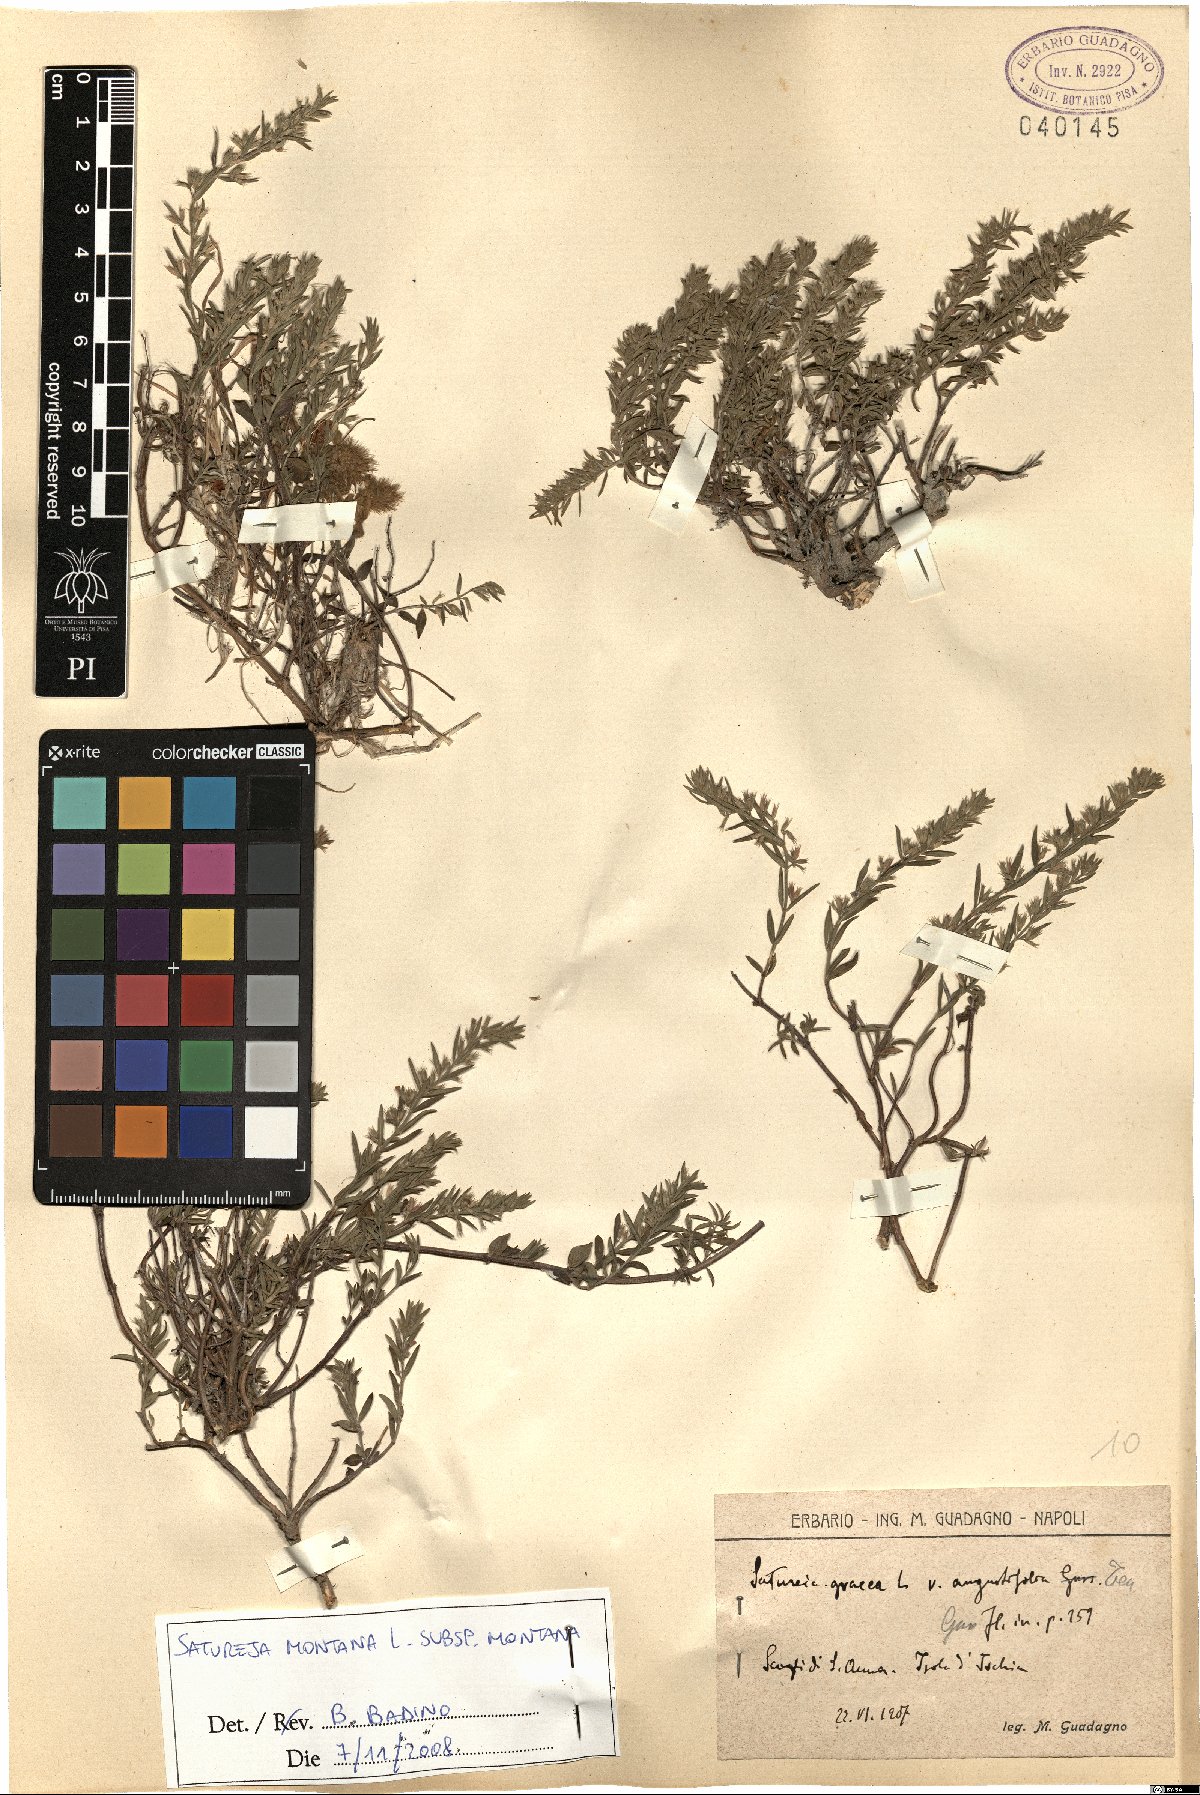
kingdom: Plantae
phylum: Tracheophyta
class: Magnoliopsida
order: Lamiales
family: Lamiaceae
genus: Satureja
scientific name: Satureja montana
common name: Winter savory
